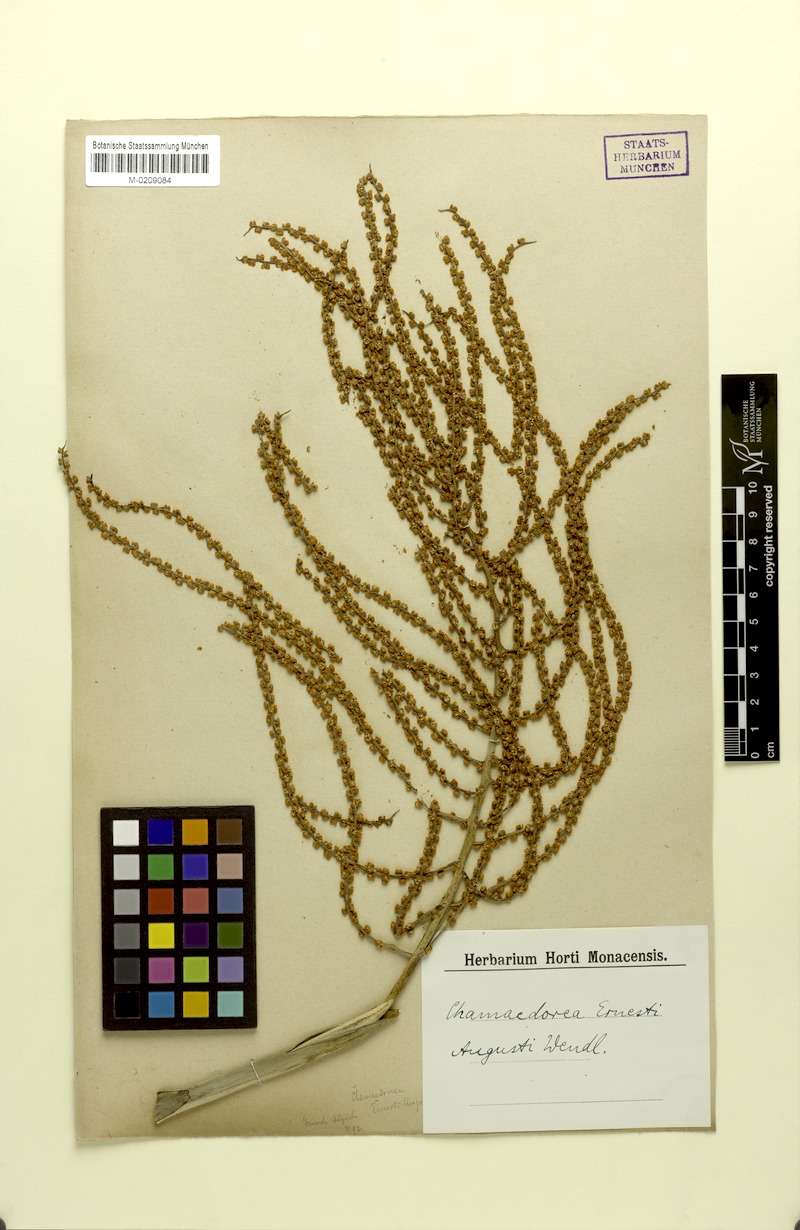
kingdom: Plantae
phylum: Tracheophyta
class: Liliopsida
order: Arecales
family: Arecaceae
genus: Chamaedorea
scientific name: Chamaedorea ernesti-augusti
